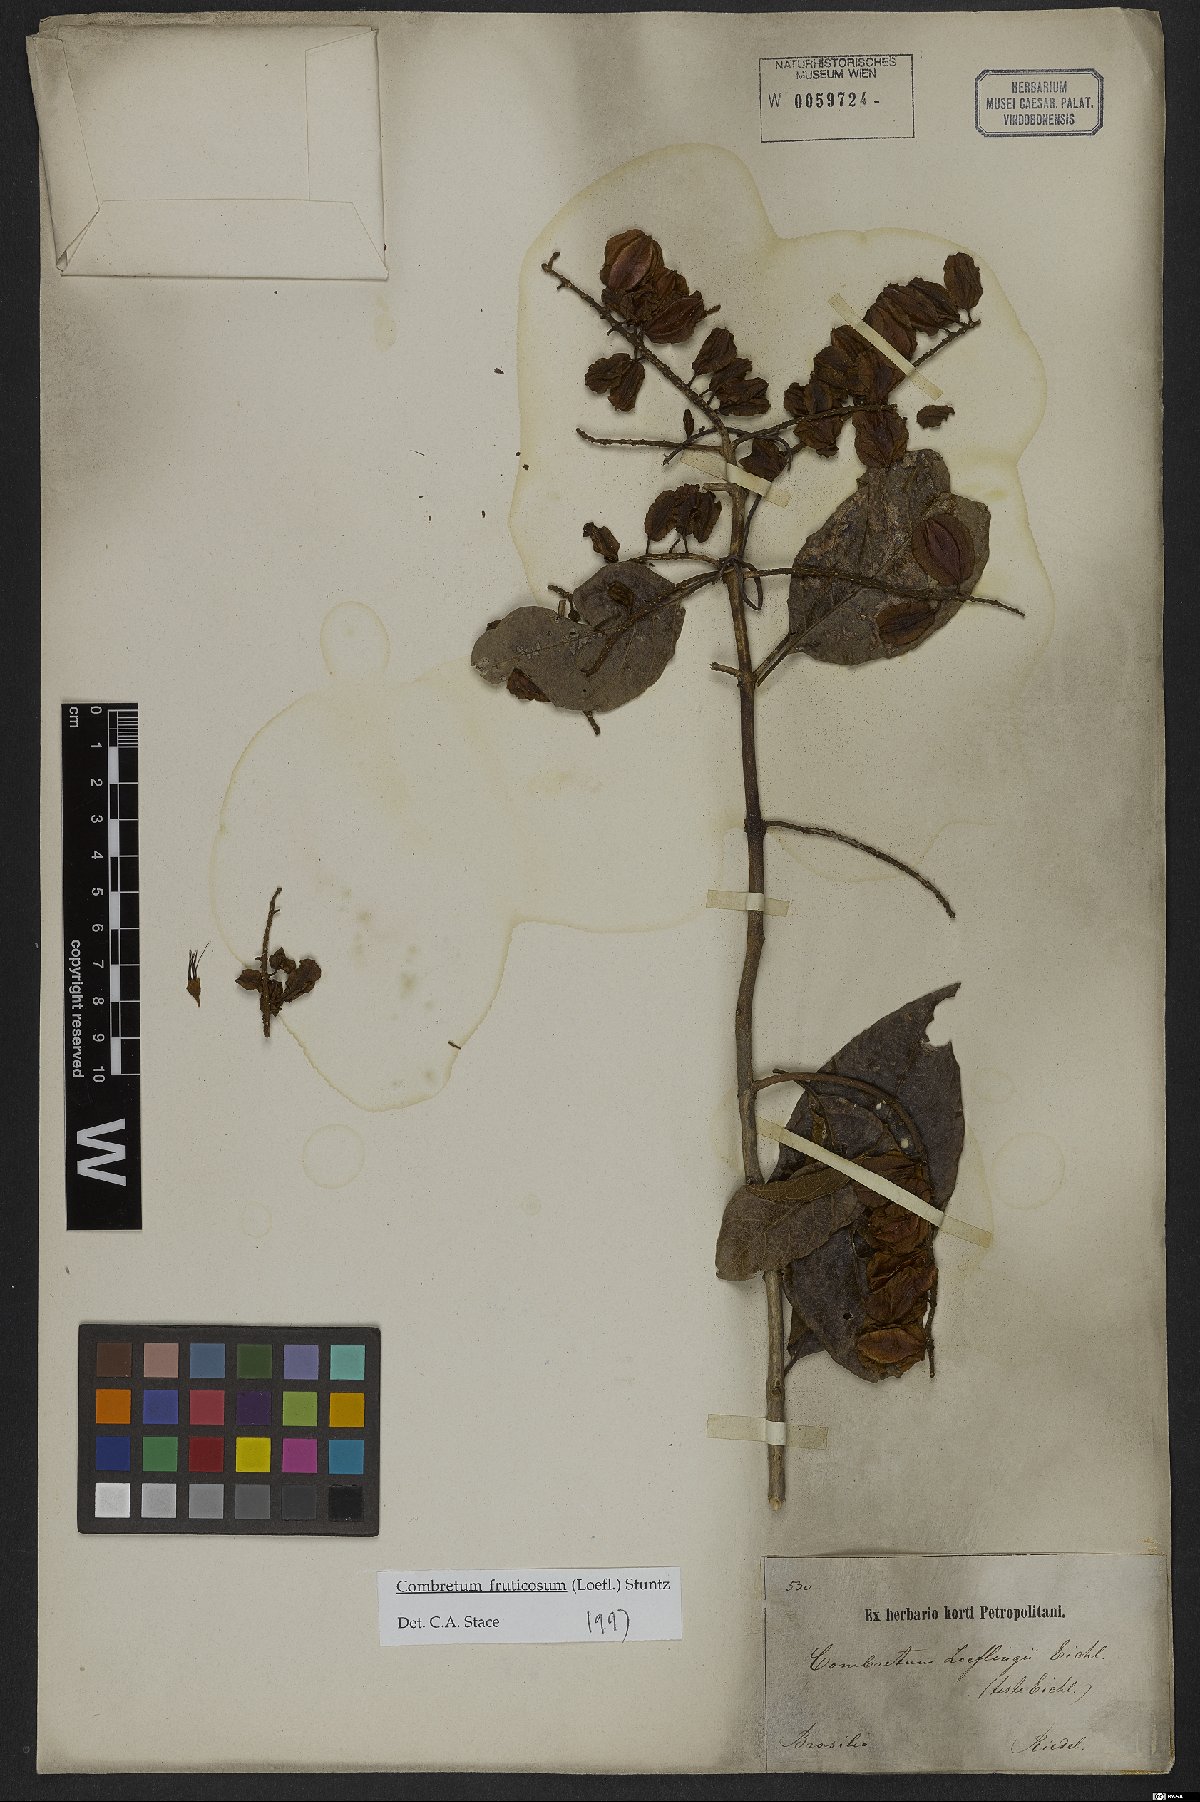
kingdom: Plantae
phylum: Tracheophyta
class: Magnoliopsida
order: Myrtales
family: Combretaceae
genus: Combretum
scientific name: Combretum fruticosum
